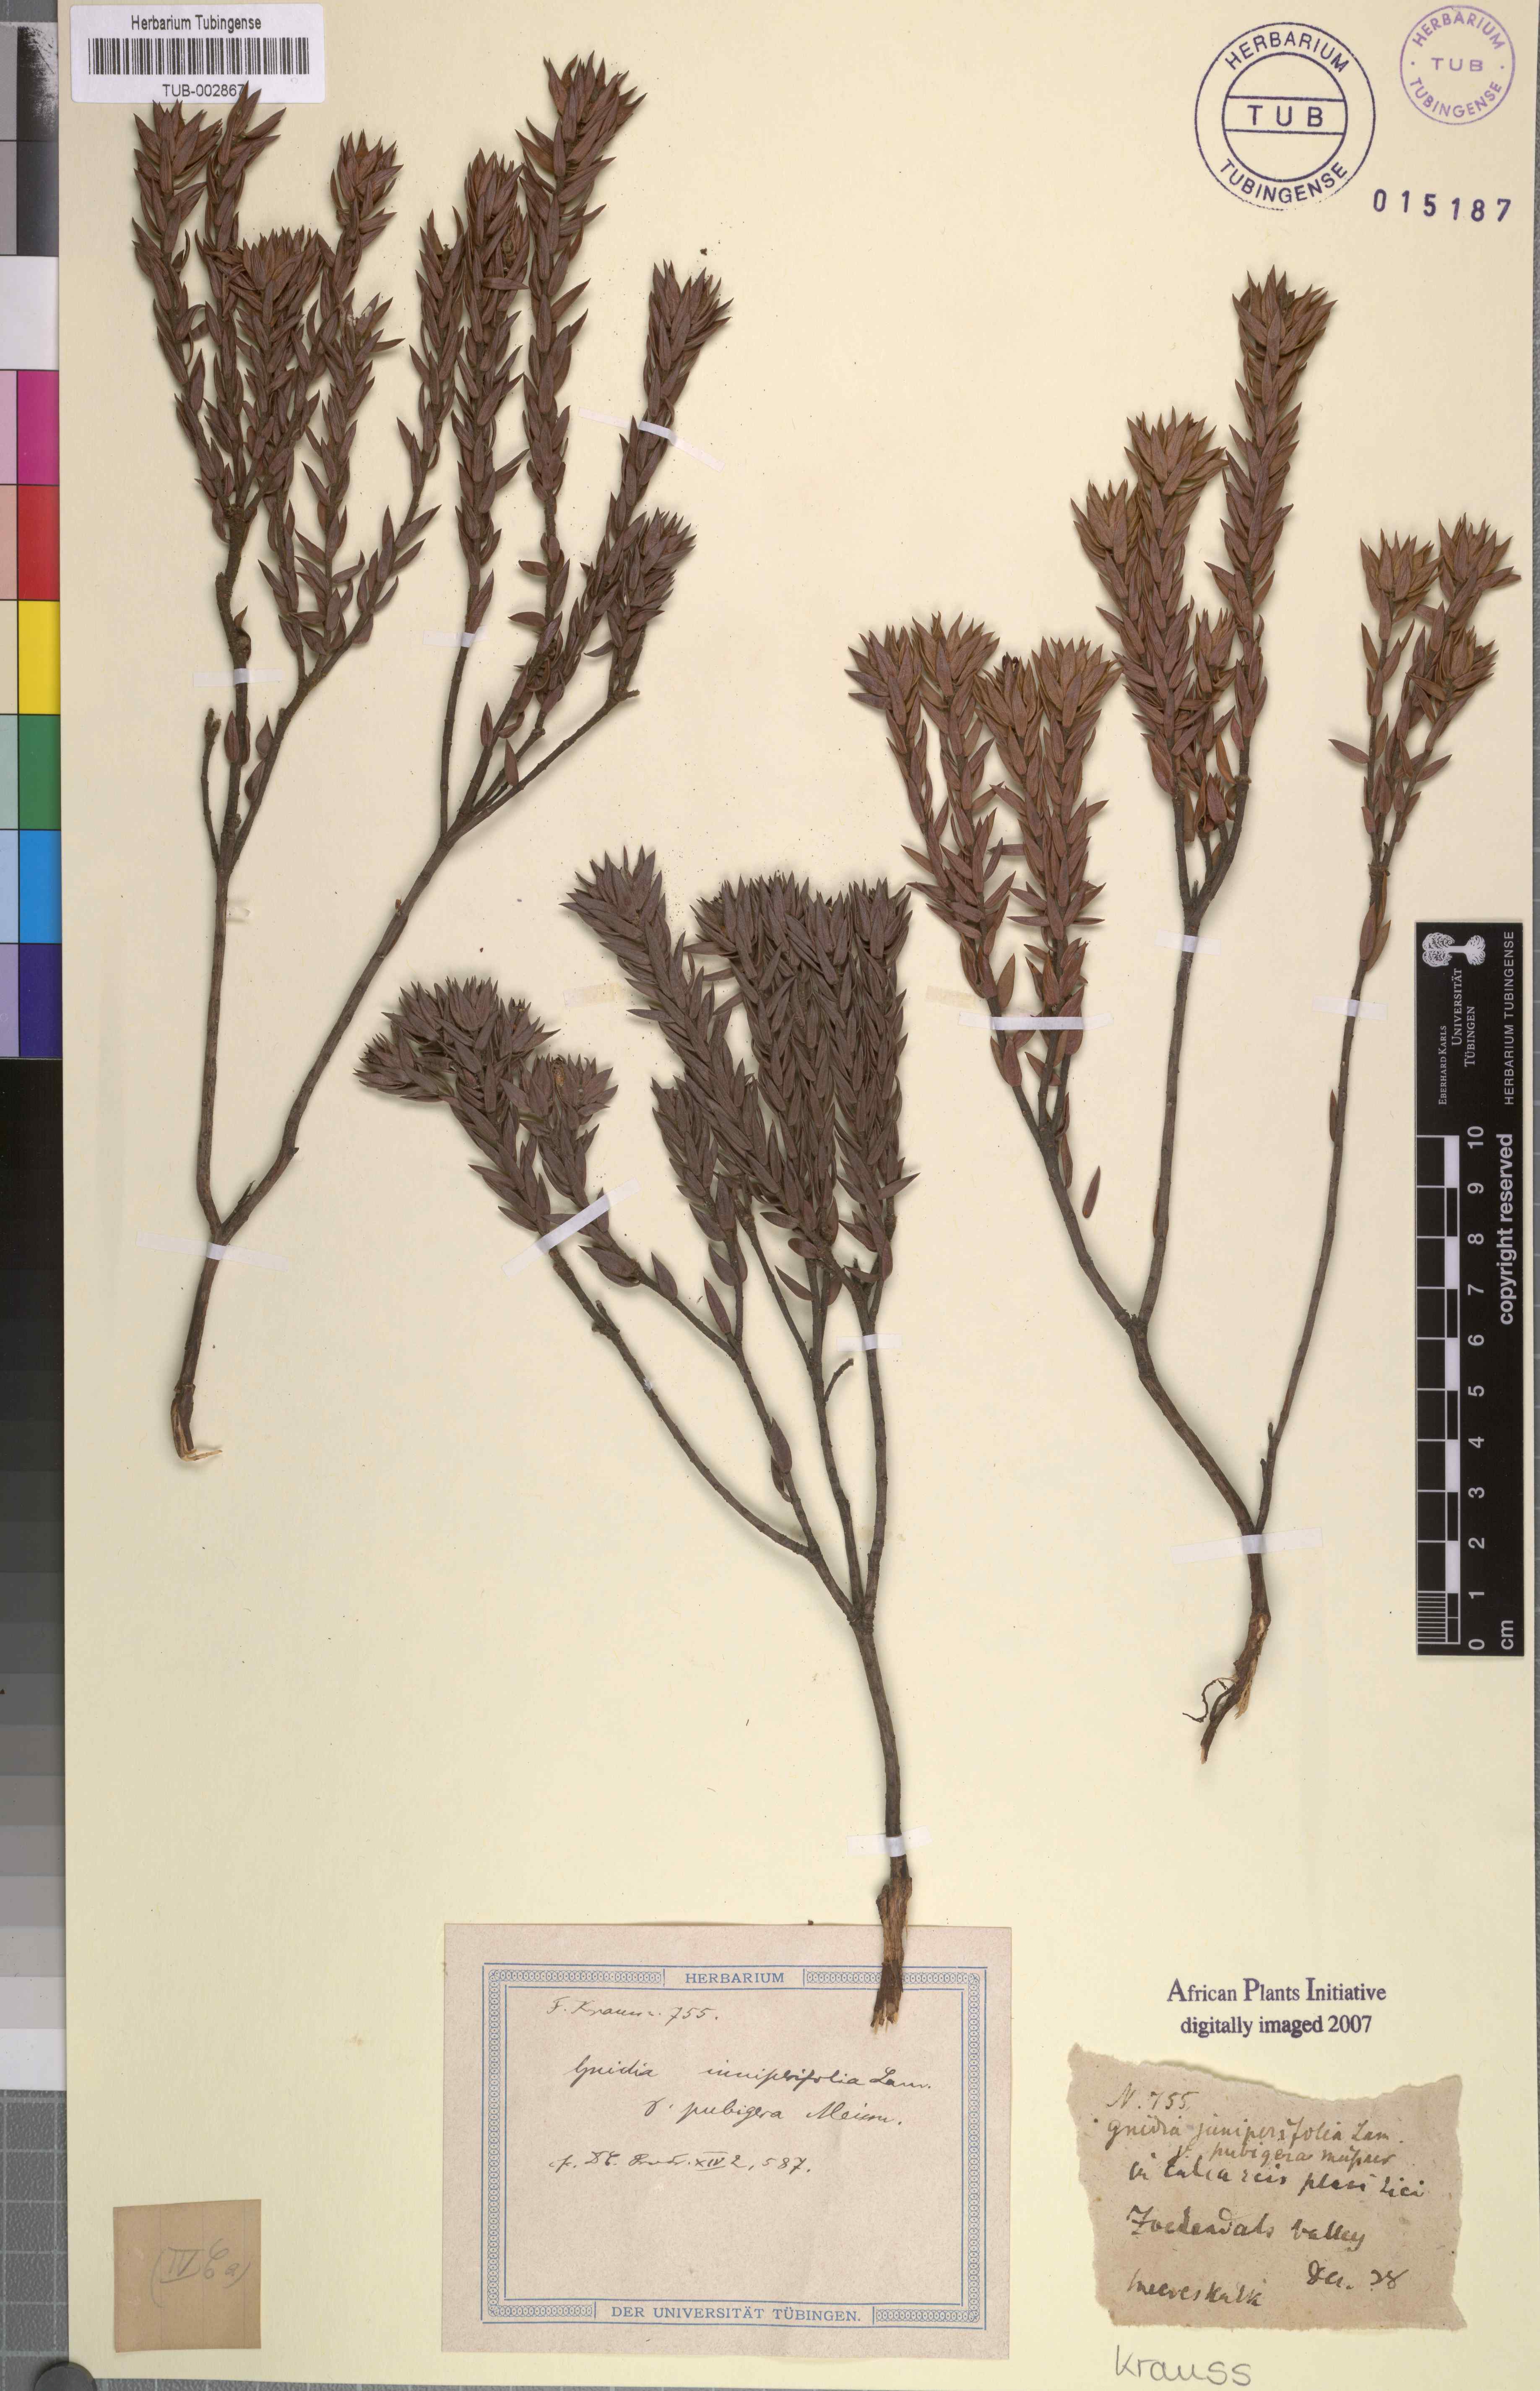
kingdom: Plantae
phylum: Tracheophyta
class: Magnoliopsida
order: Malvales
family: Thymelaeaceae
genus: Gnidia
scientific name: Gnidia juniperifolia
